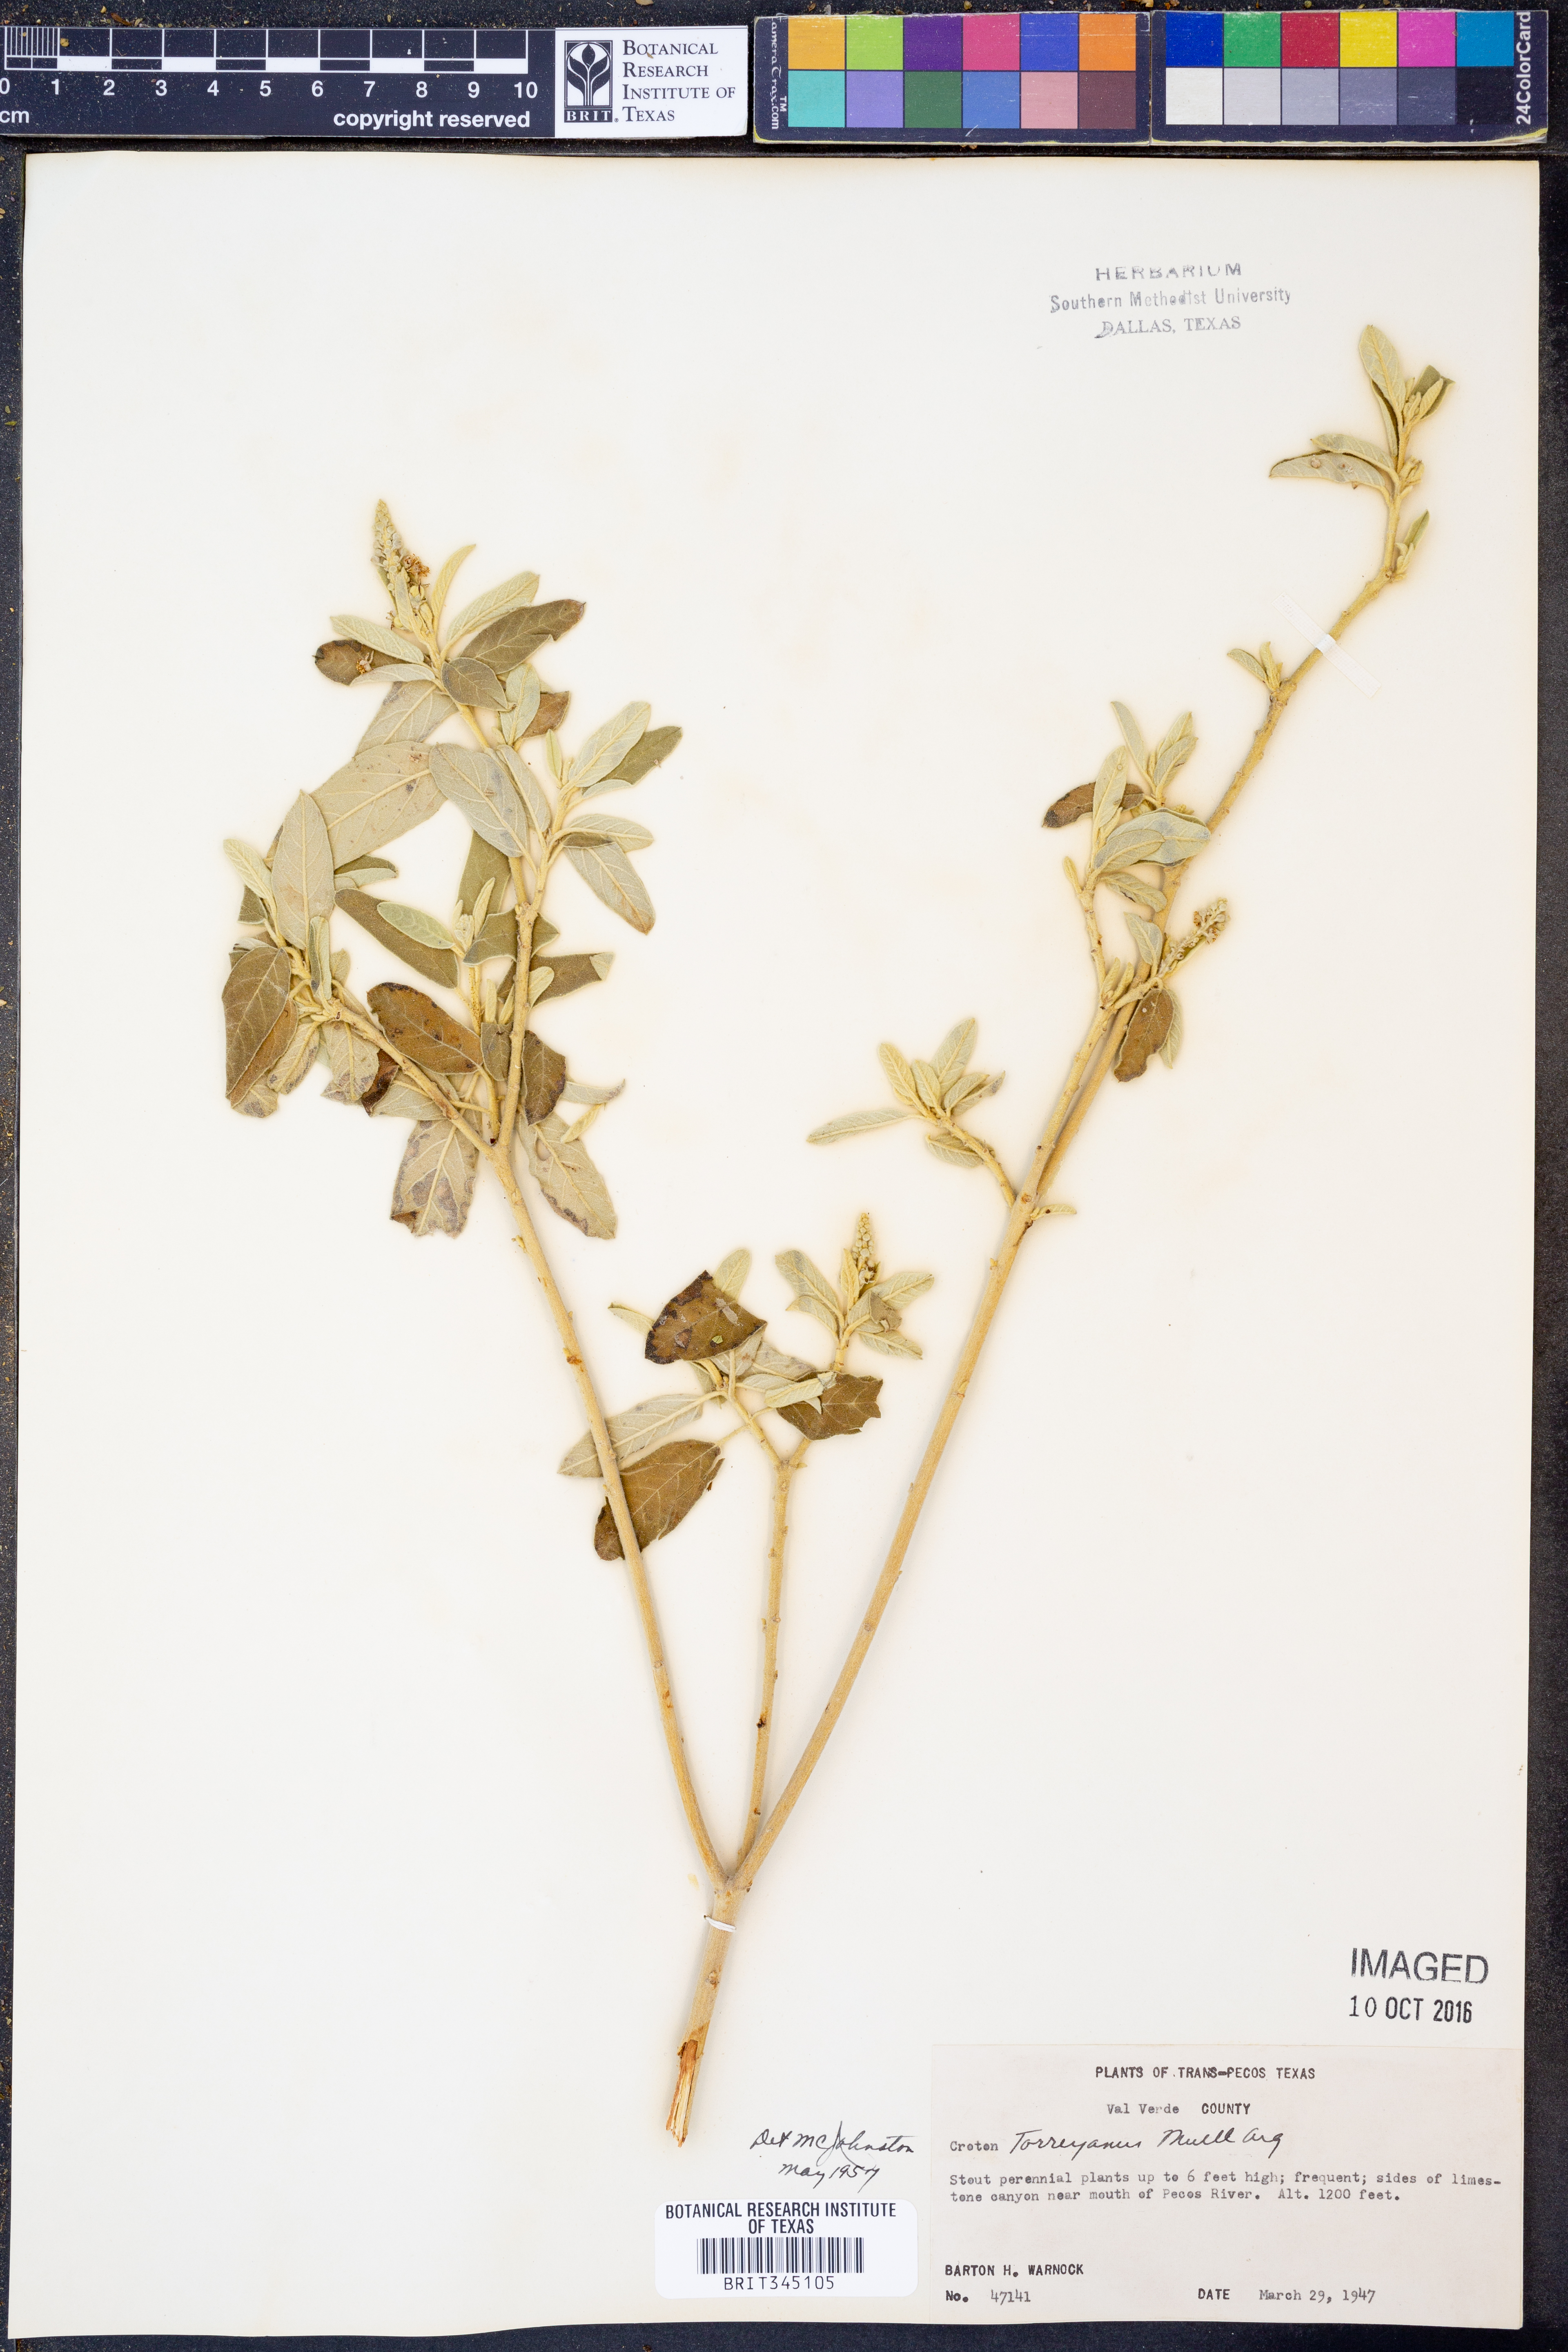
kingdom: Plantae
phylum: Tracheophyta
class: Magnoliopsida
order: Malpighiales
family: Euphorbiaceae
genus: Croton
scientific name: Croton incanus
